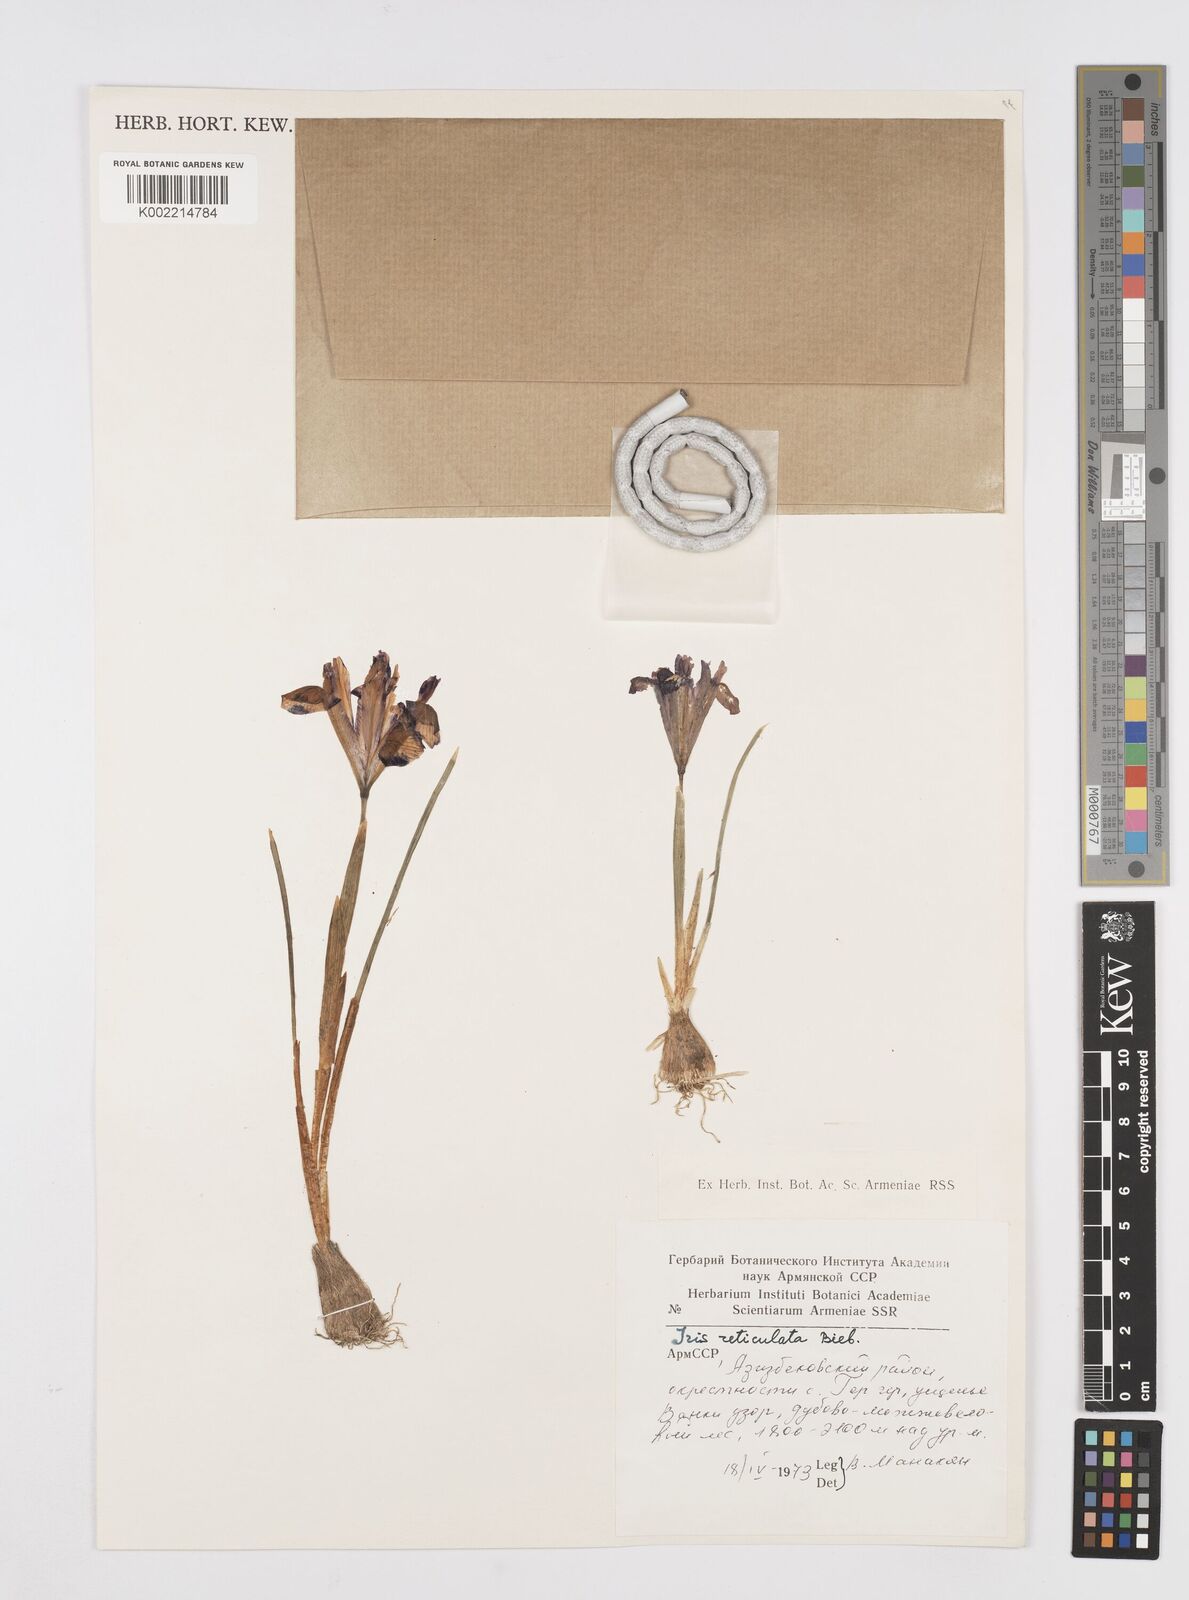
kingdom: Plantae
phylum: Tracheophyta
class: Liliopsida
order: Asparagales
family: Iridaceae
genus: Iris
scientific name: Iris reticulata
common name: Netted iris
